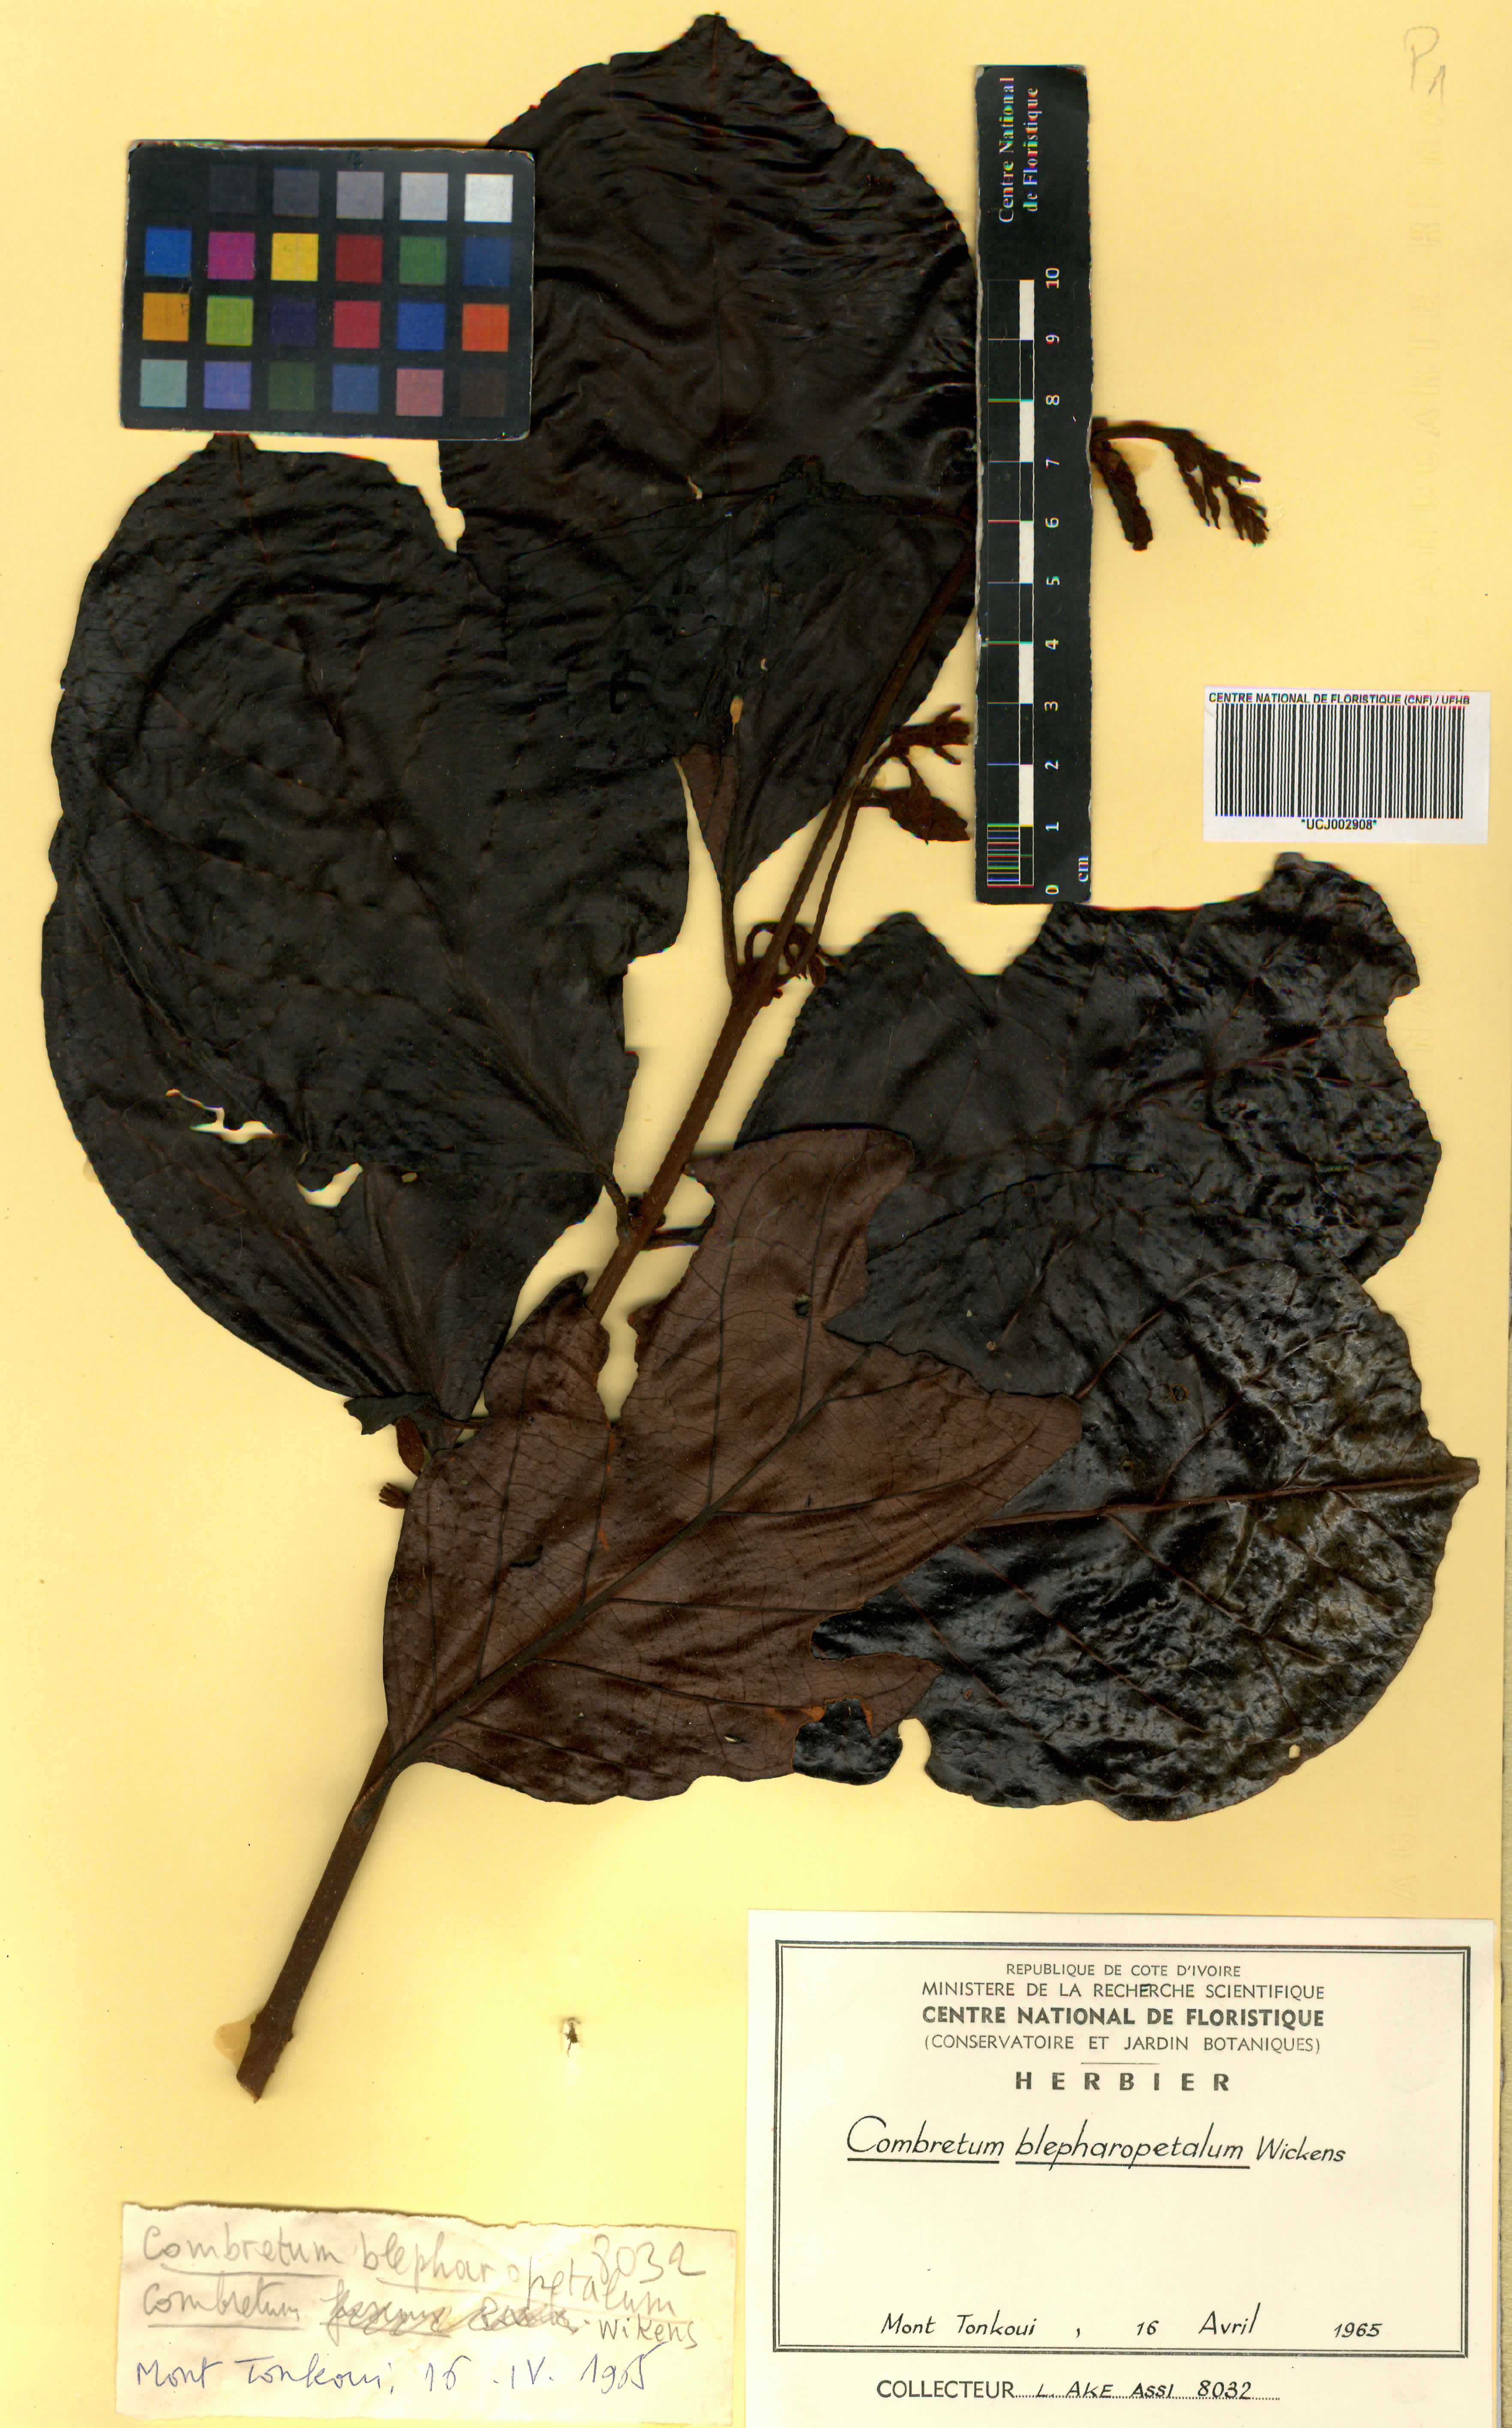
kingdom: Plantae
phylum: Tracheophyta
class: Magnoliopsida
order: Myrtales
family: Combretaceae
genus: Combretum
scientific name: Combretum blepharopetalum
